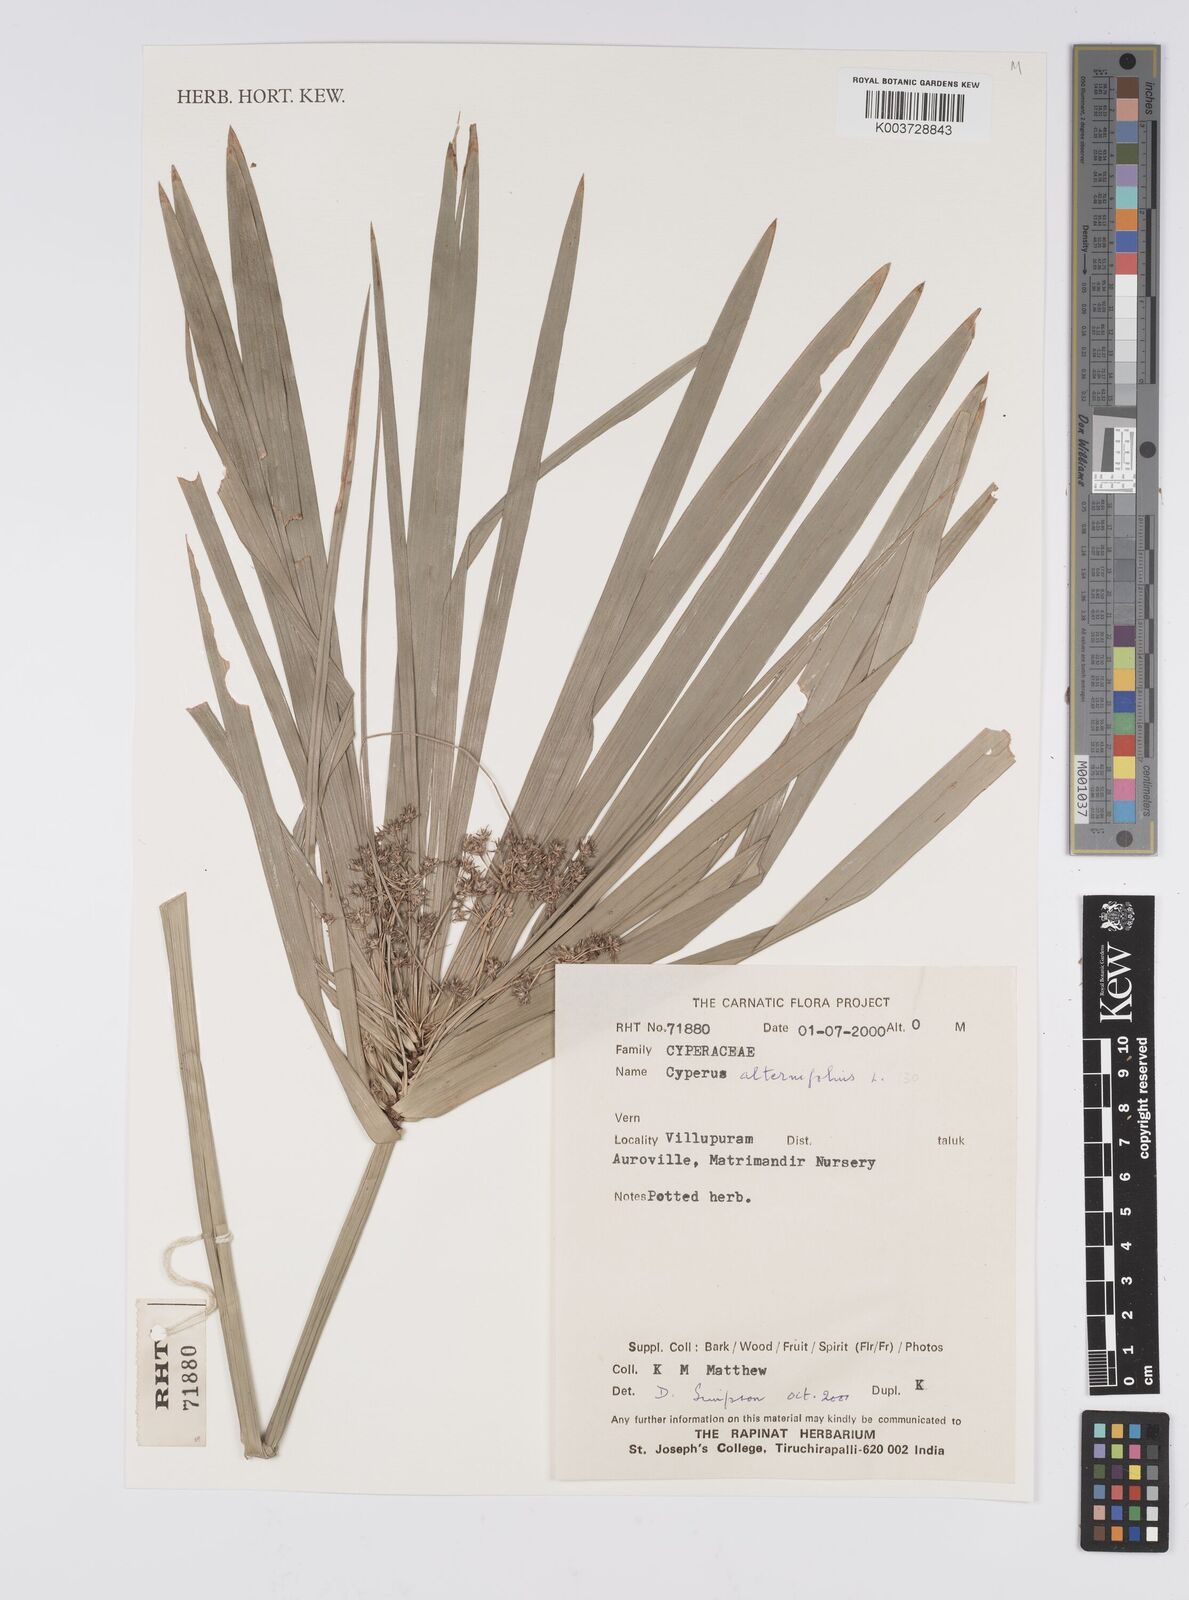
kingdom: Plantae
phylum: Tracheophyta
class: Liliopsida
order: Poales
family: Cyperaceae
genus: Cyperus
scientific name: Cyperus alternifolius
